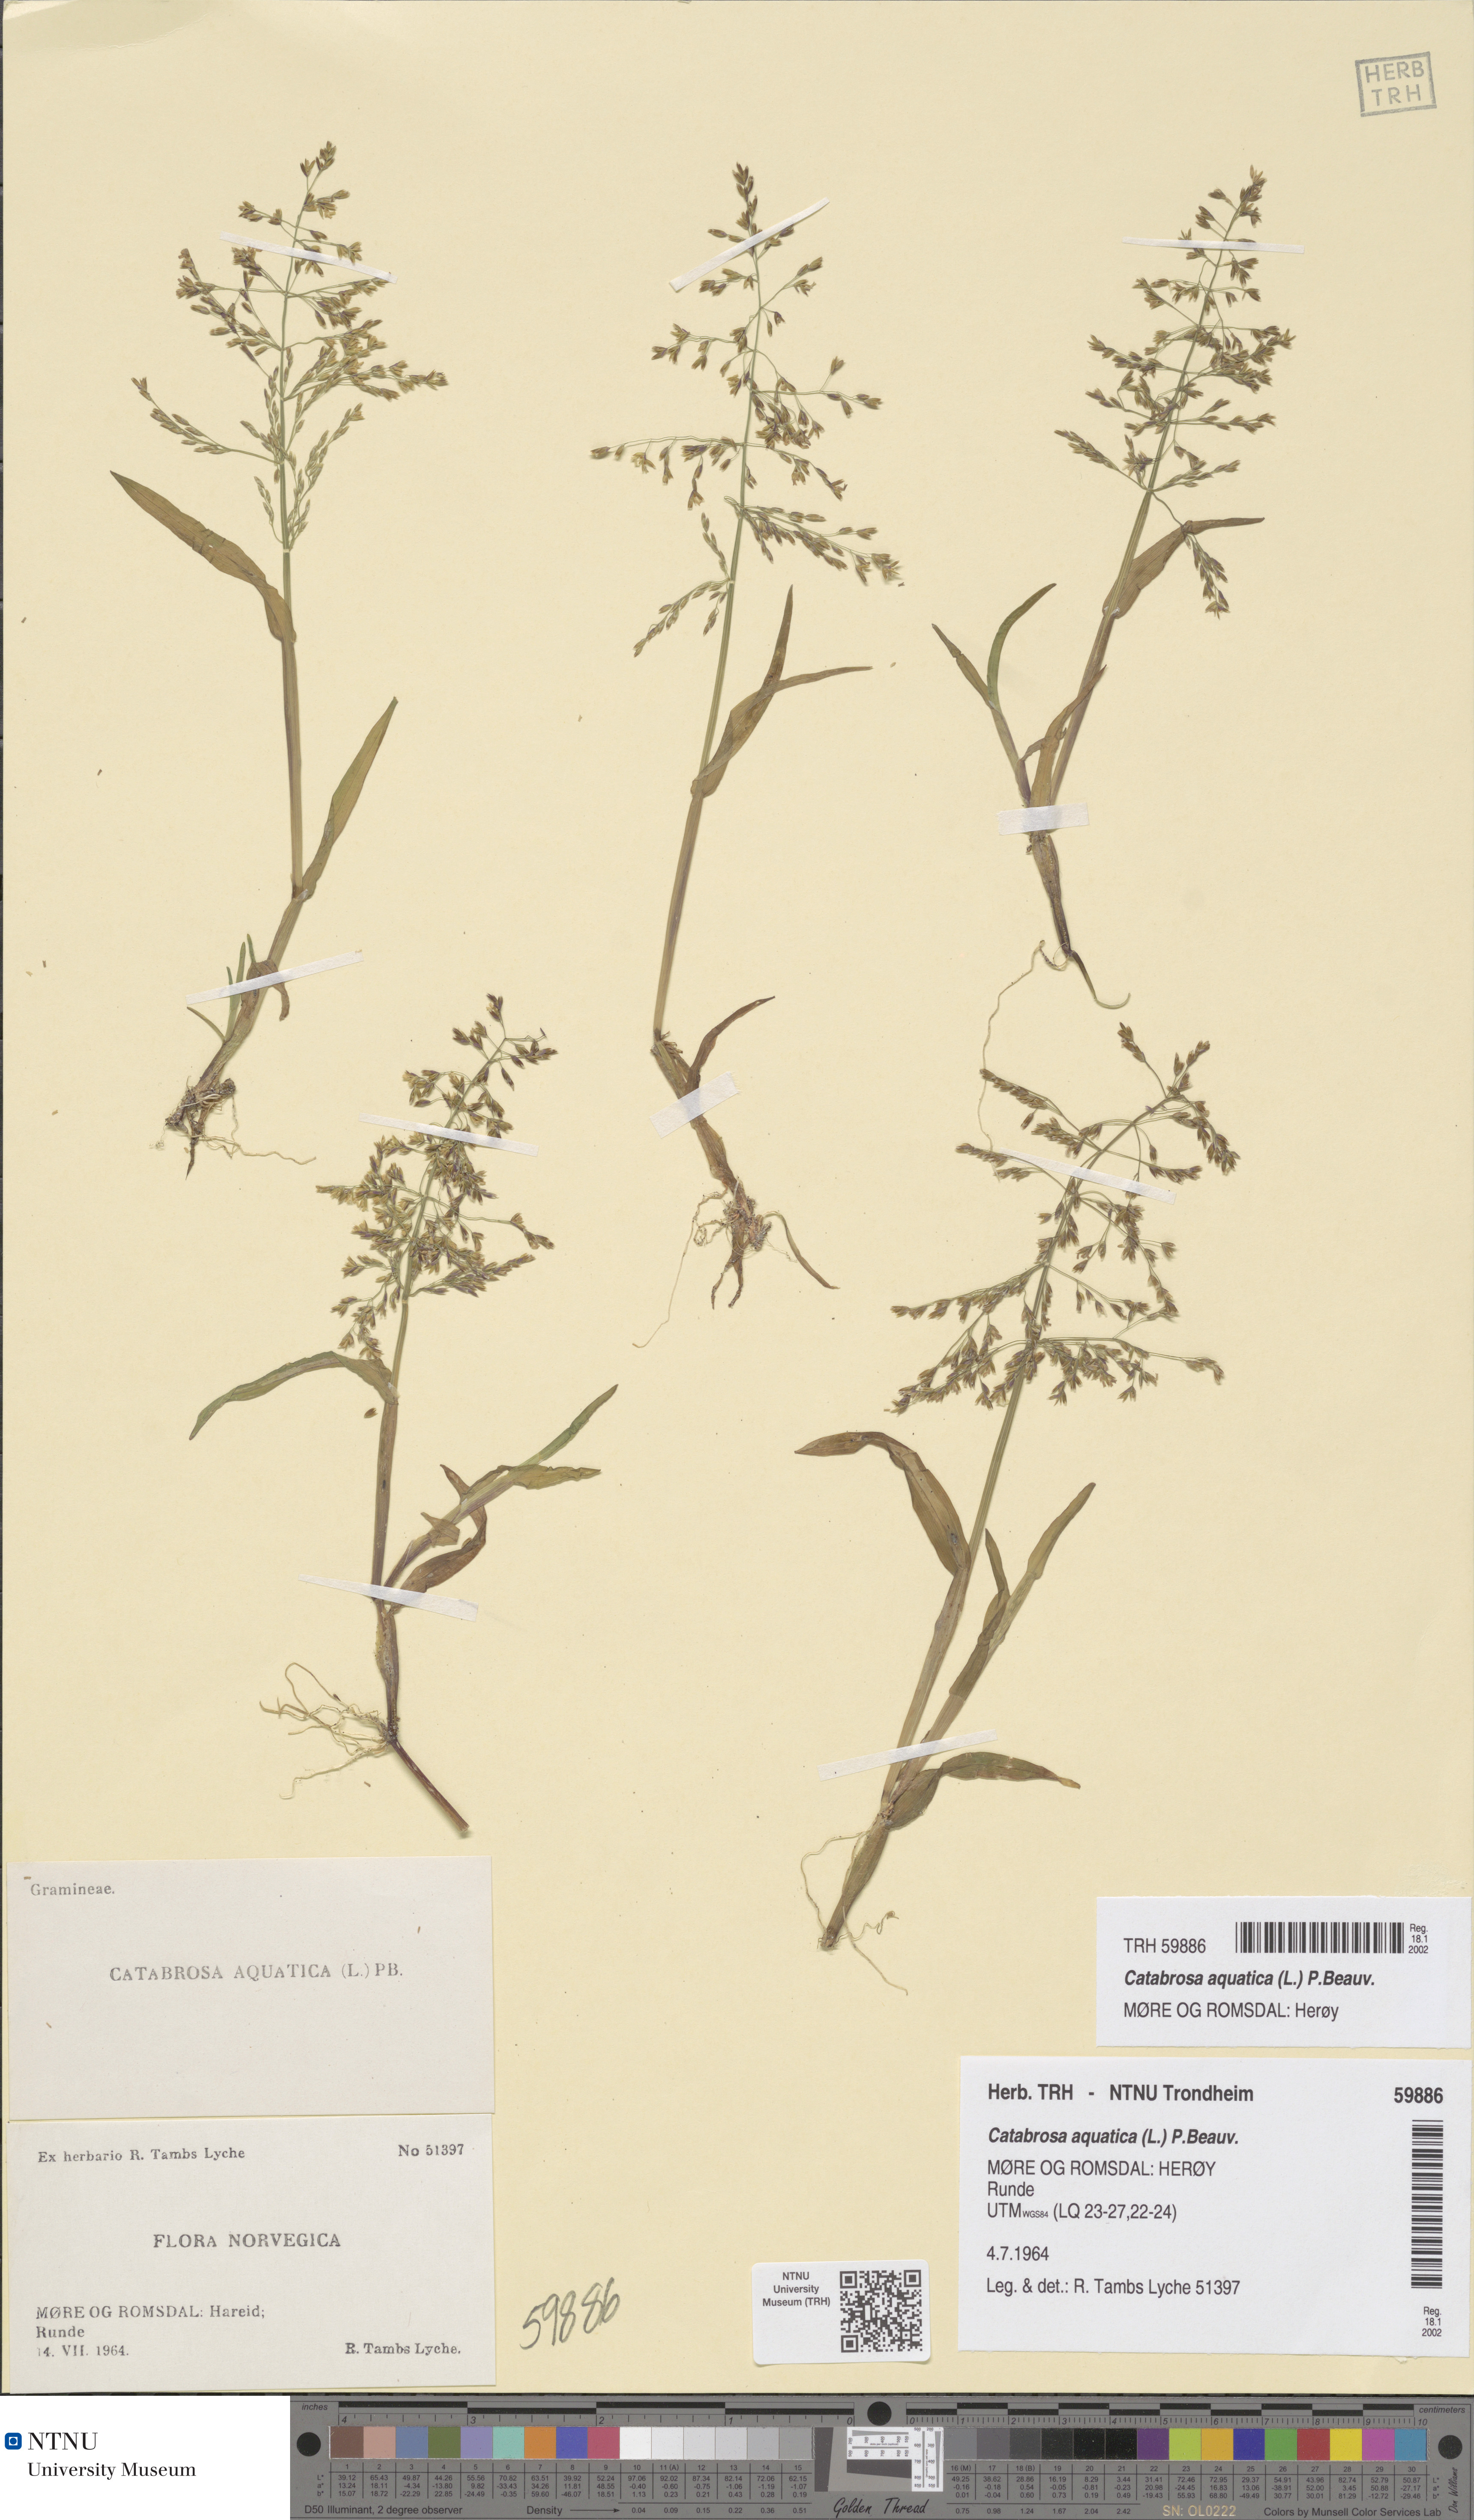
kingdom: Plantae
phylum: Tracheophyta
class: Liliopsida
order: Poales
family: Poaceae
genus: Catabrosa
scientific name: Catabrosa aquatica
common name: Whorl-grass
